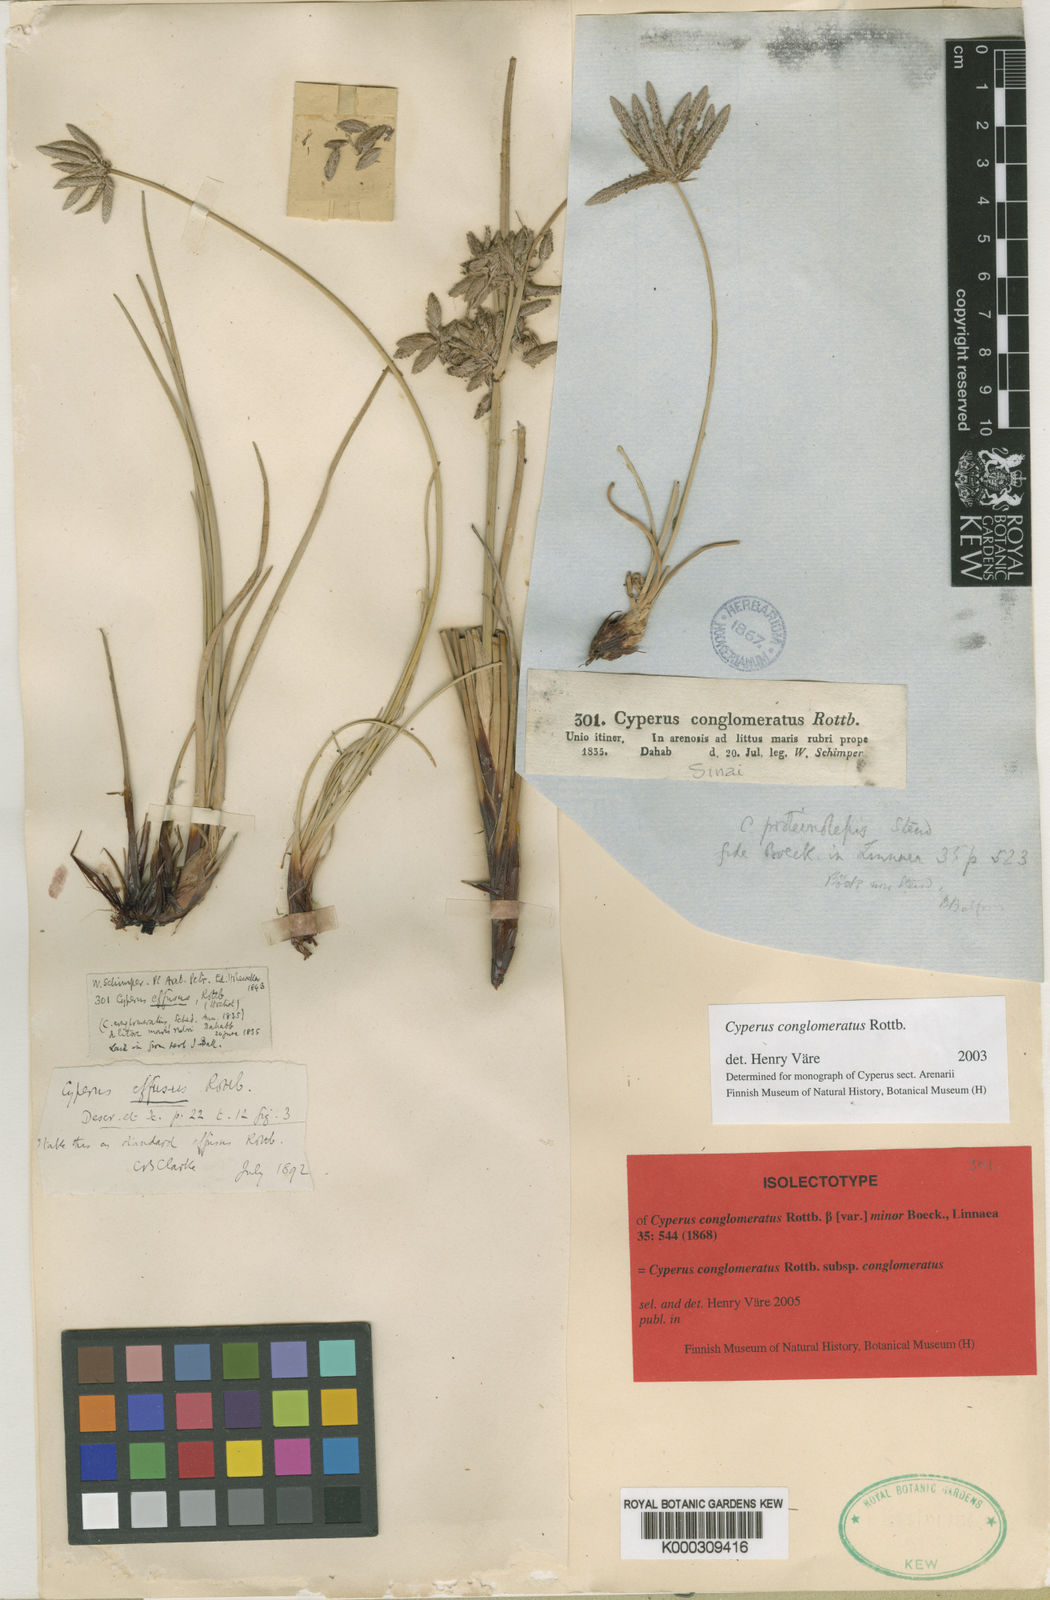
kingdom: Plantae
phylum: Tracheophyta
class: Liliopsida
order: Poales
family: Cyperaceae
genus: Cyperus
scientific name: Cyperus conglomeratus
